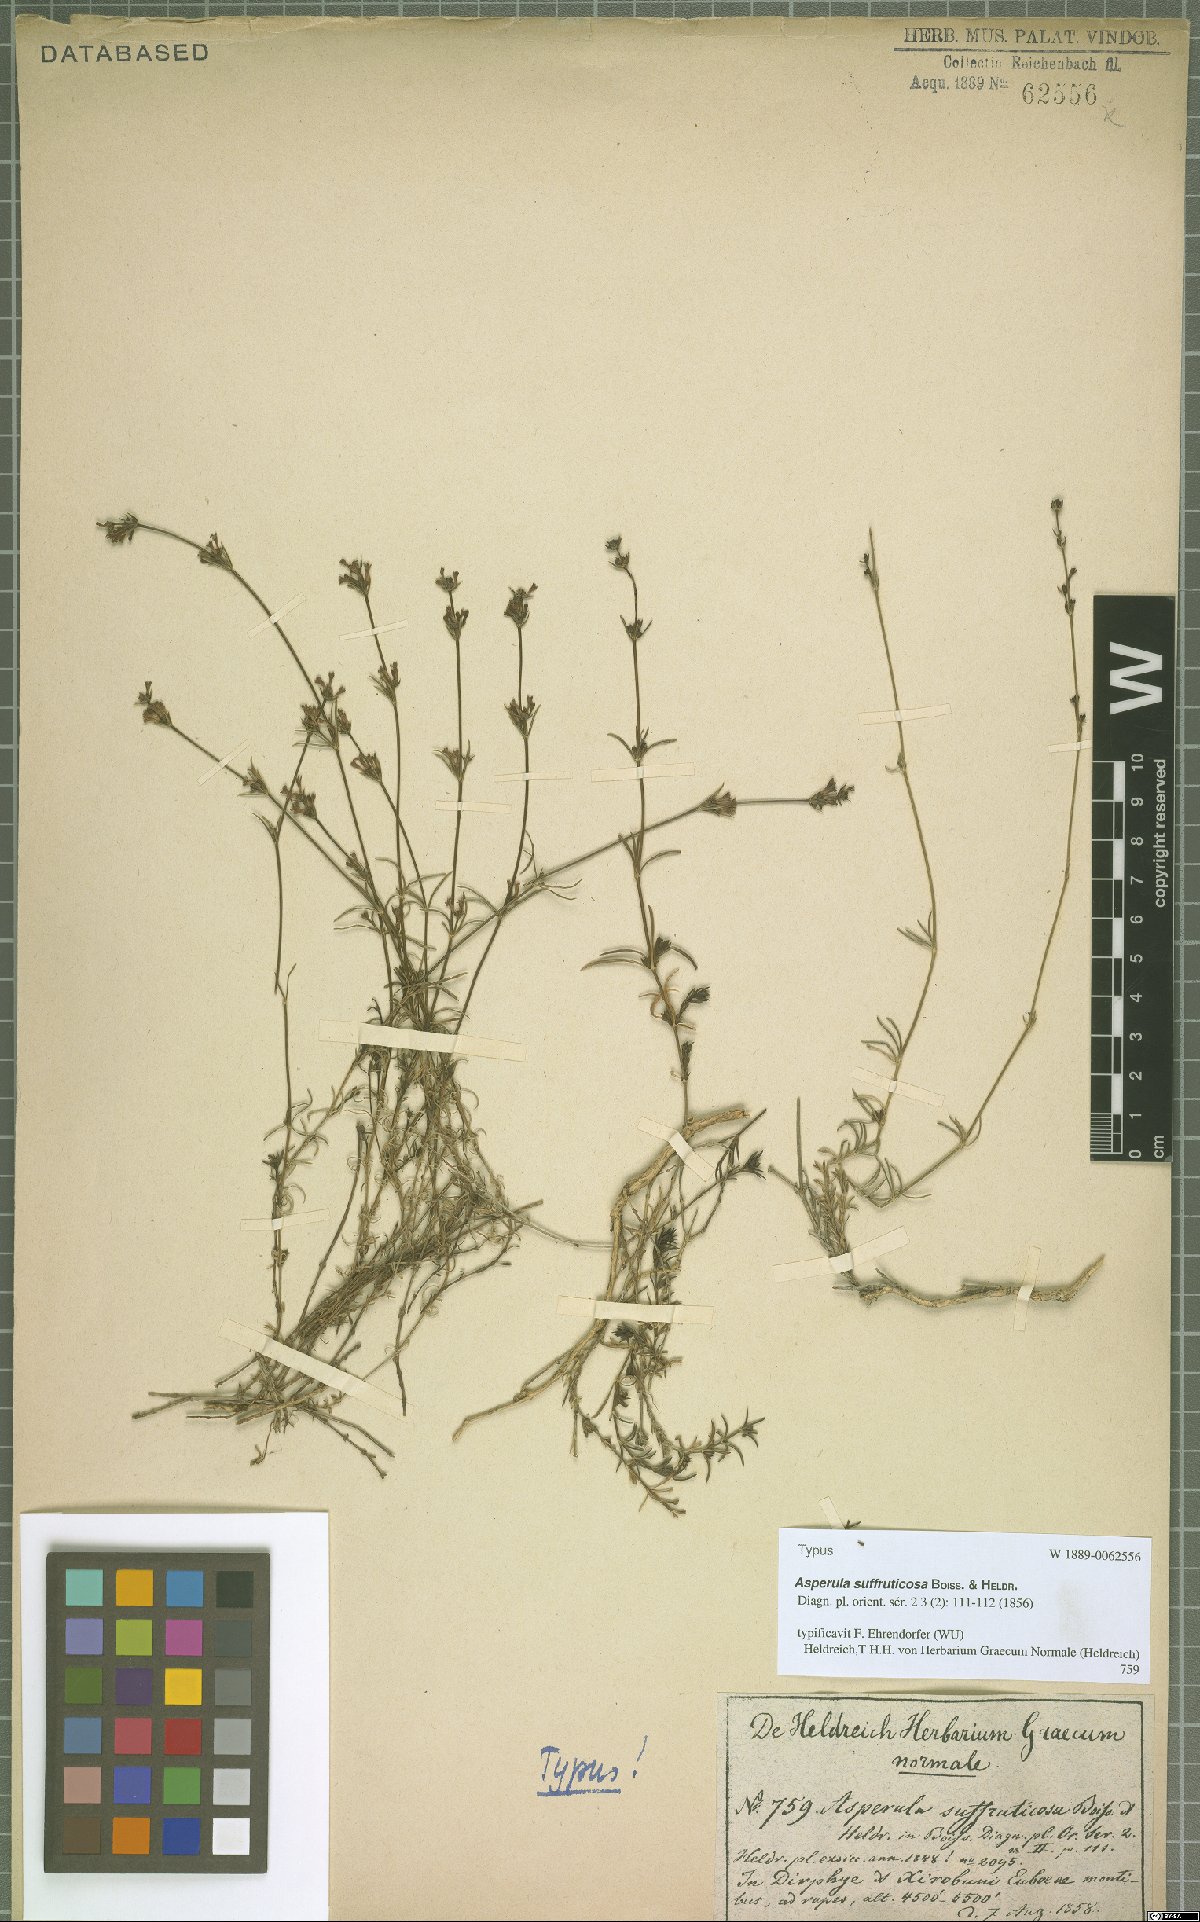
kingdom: Plantae
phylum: Tracheophyta
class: Magnoliopsida
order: Gentianales
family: Rubiaceae
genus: Cynanchica
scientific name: Cynanchica suffruticosa
